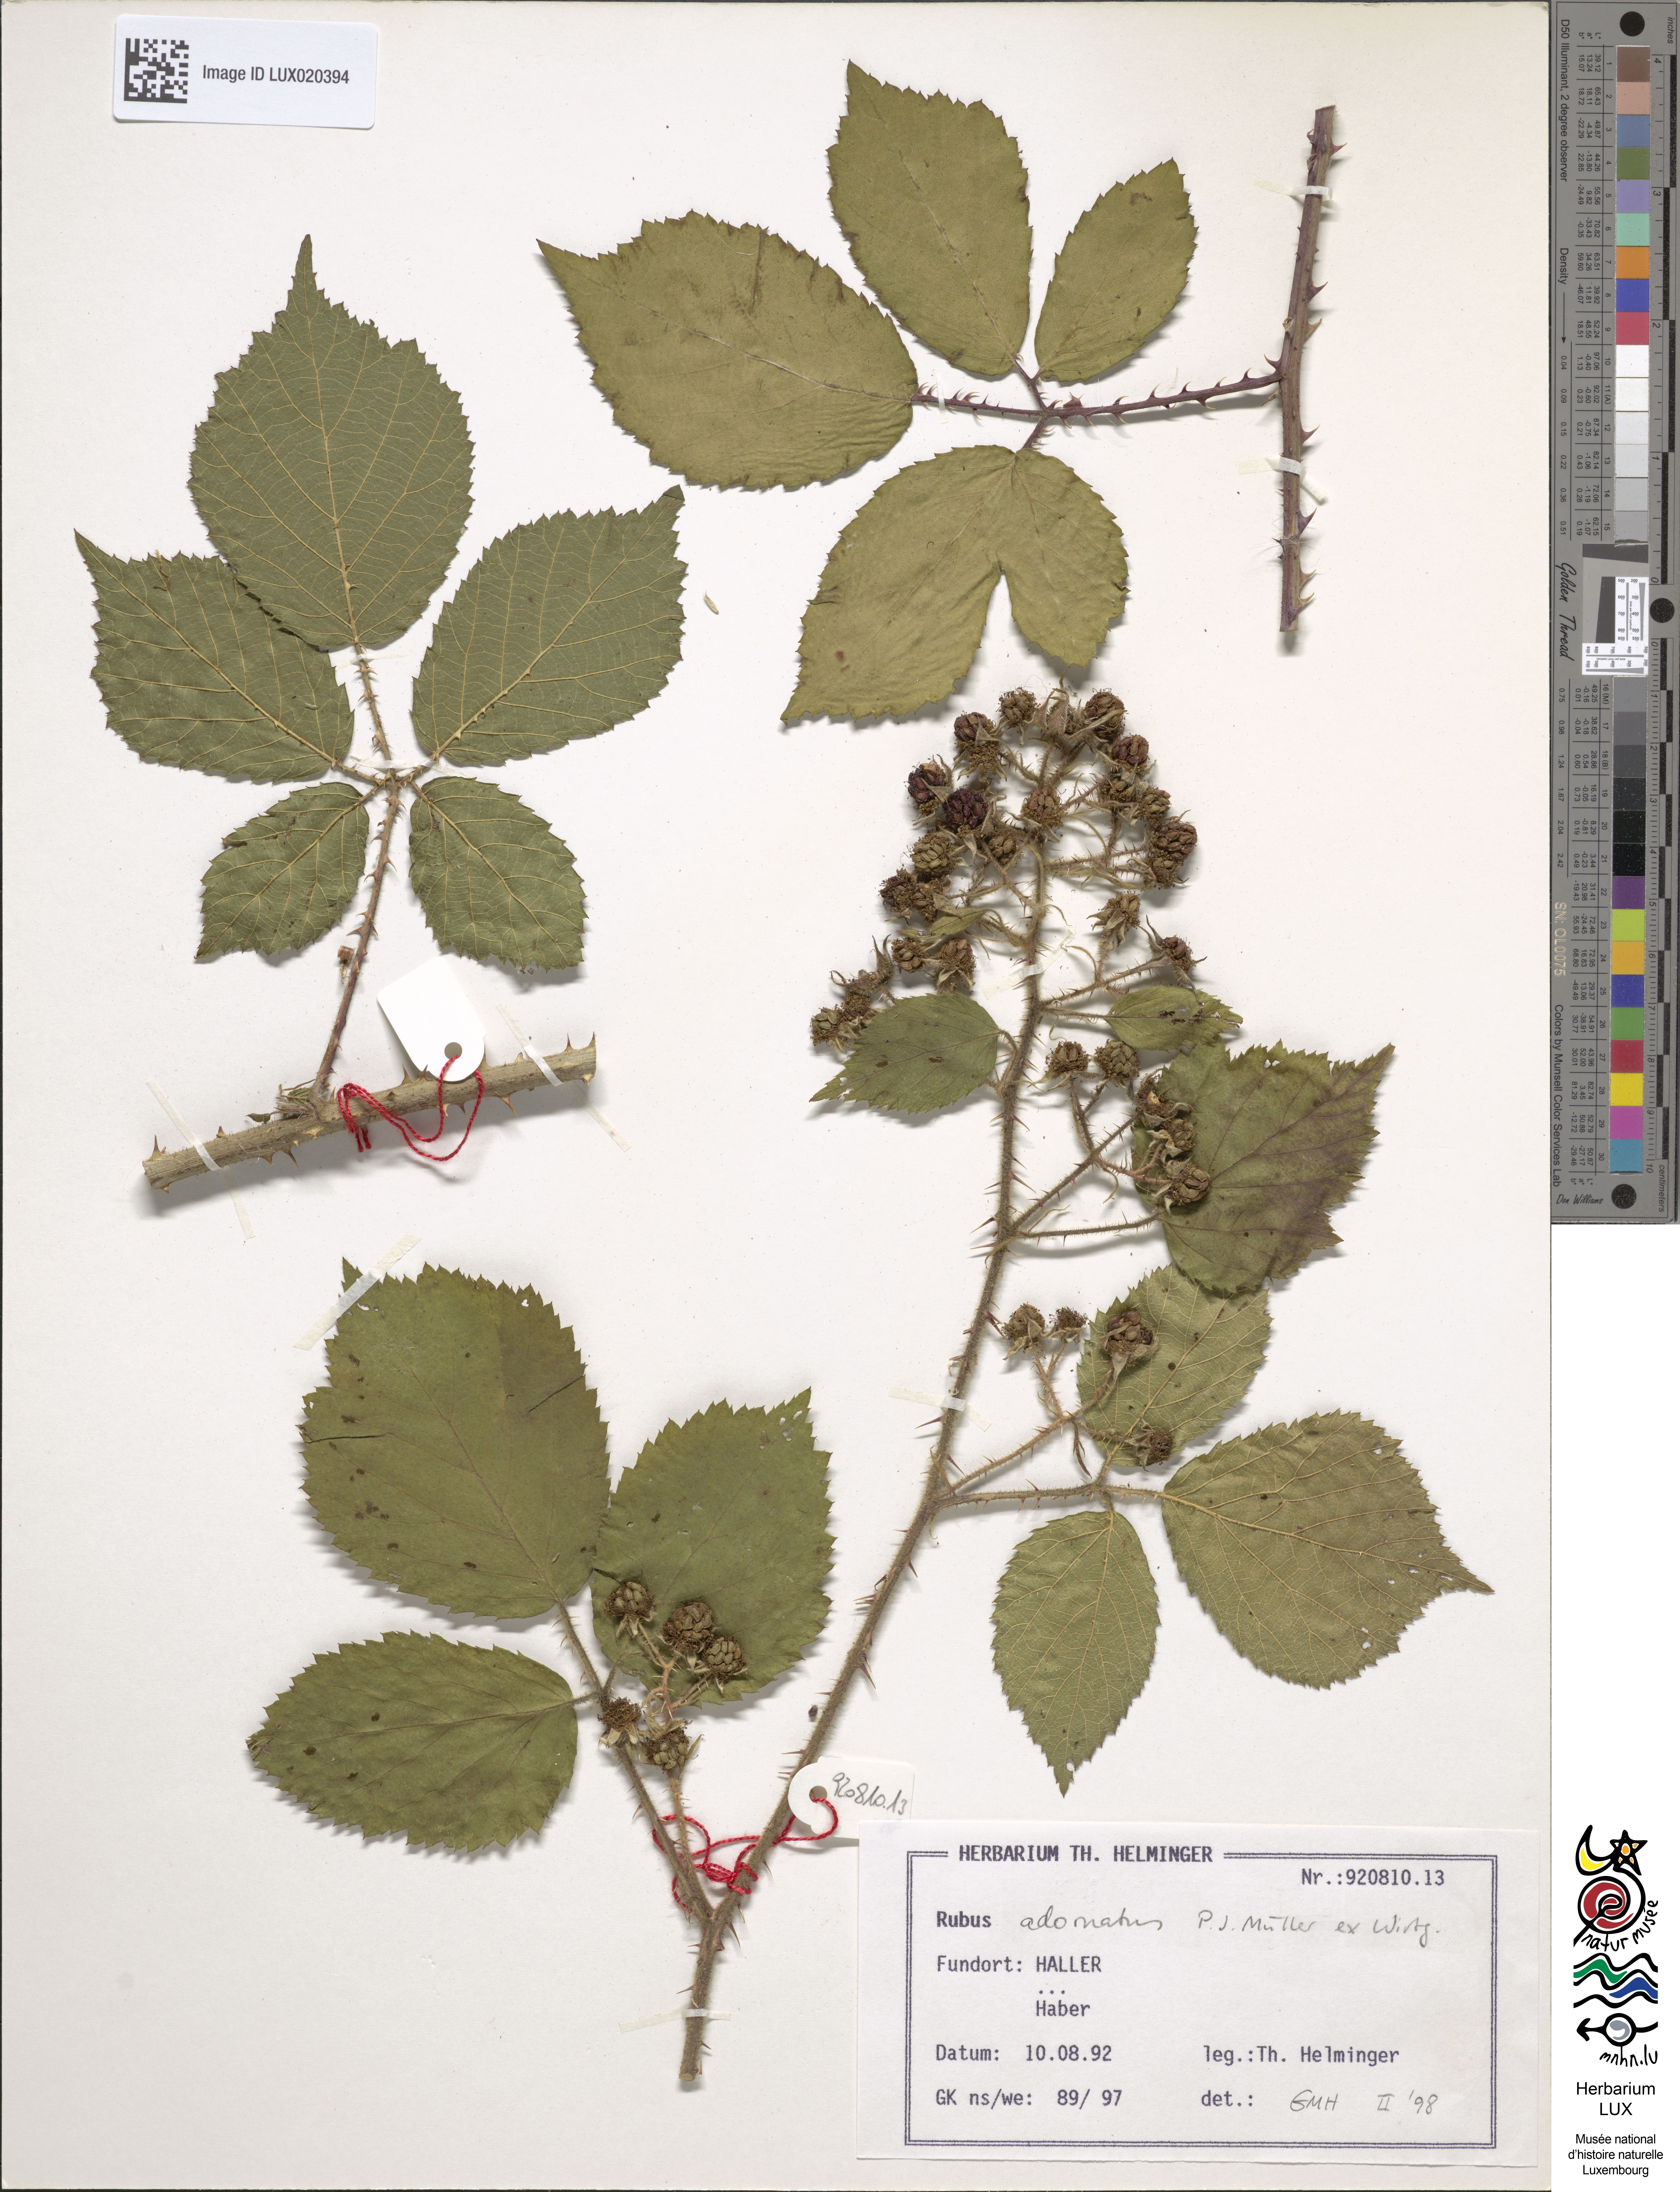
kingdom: Plantae
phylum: Tracheophyta
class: Magnoliopsida
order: Rosales
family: Rosaceae
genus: Rubus
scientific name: Rubus
